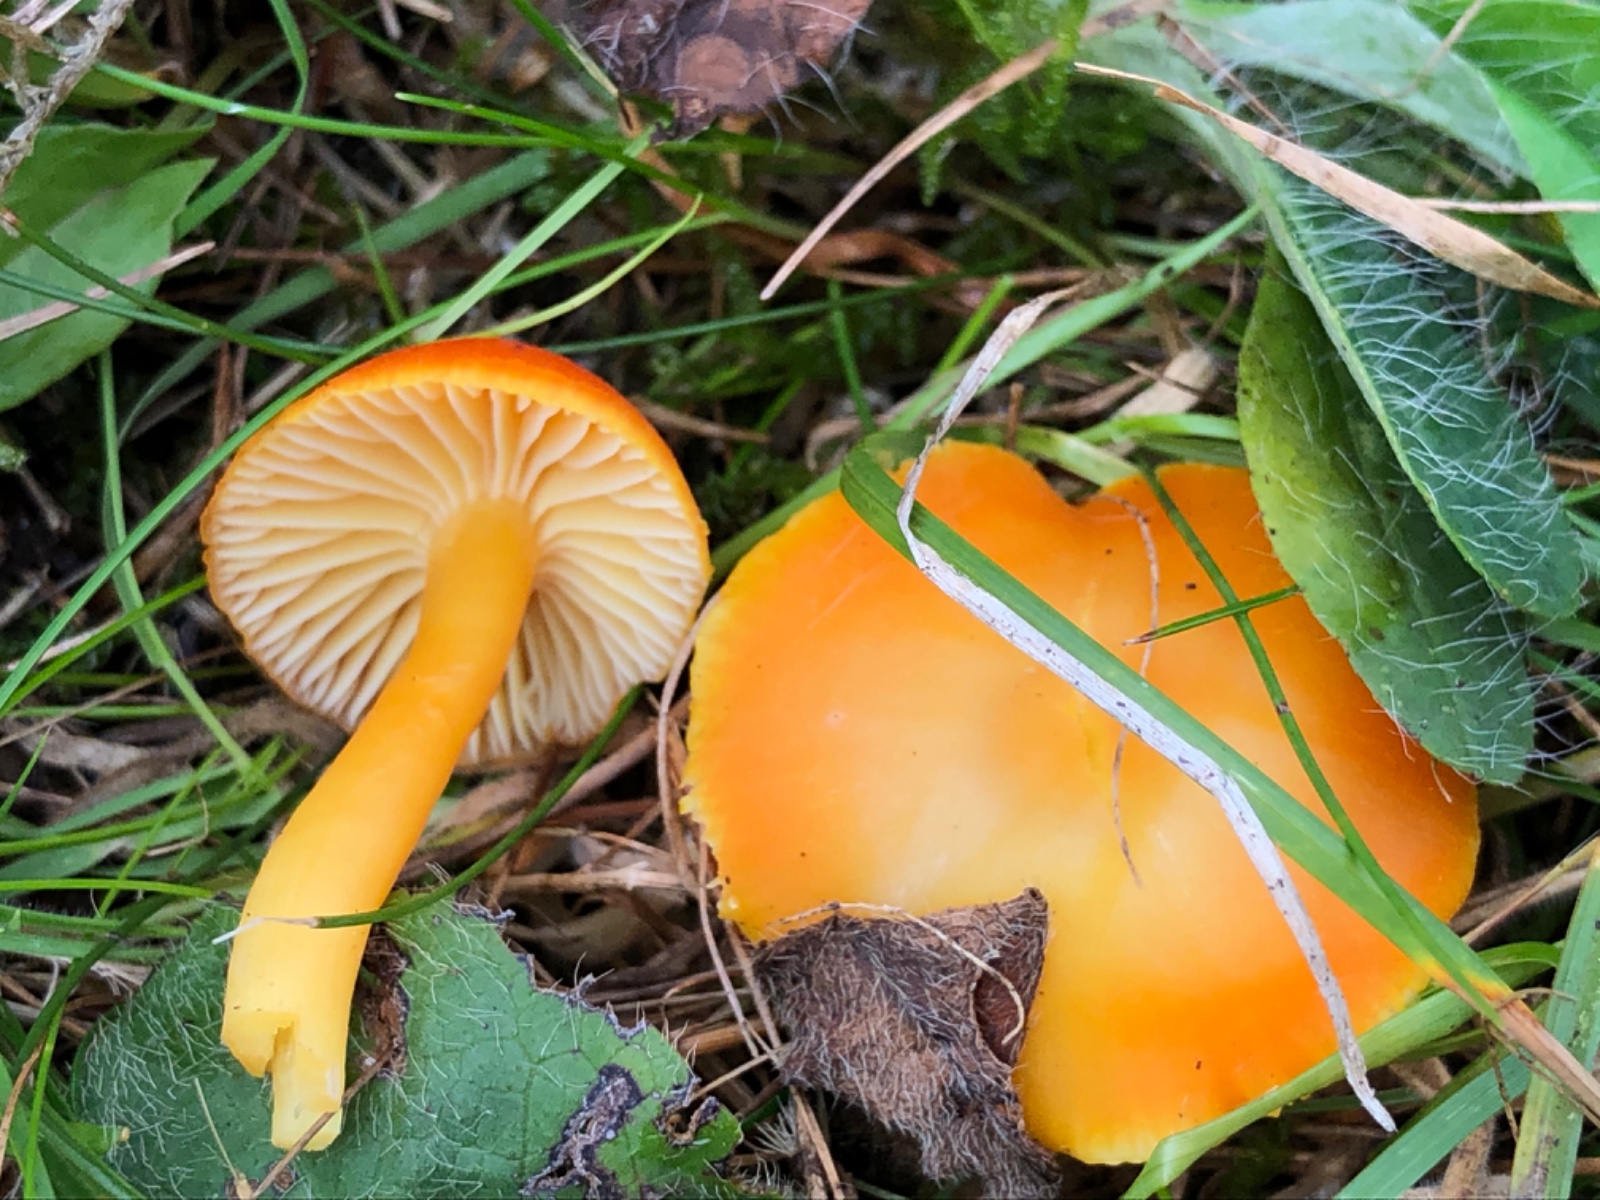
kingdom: Fungi
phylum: Basidiomycota
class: Agaricomycetes
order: Agaricales
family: Hygrophoraceae
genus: Hygrocybe
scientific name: Hygrocybe reidii
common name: honning-vokshat
